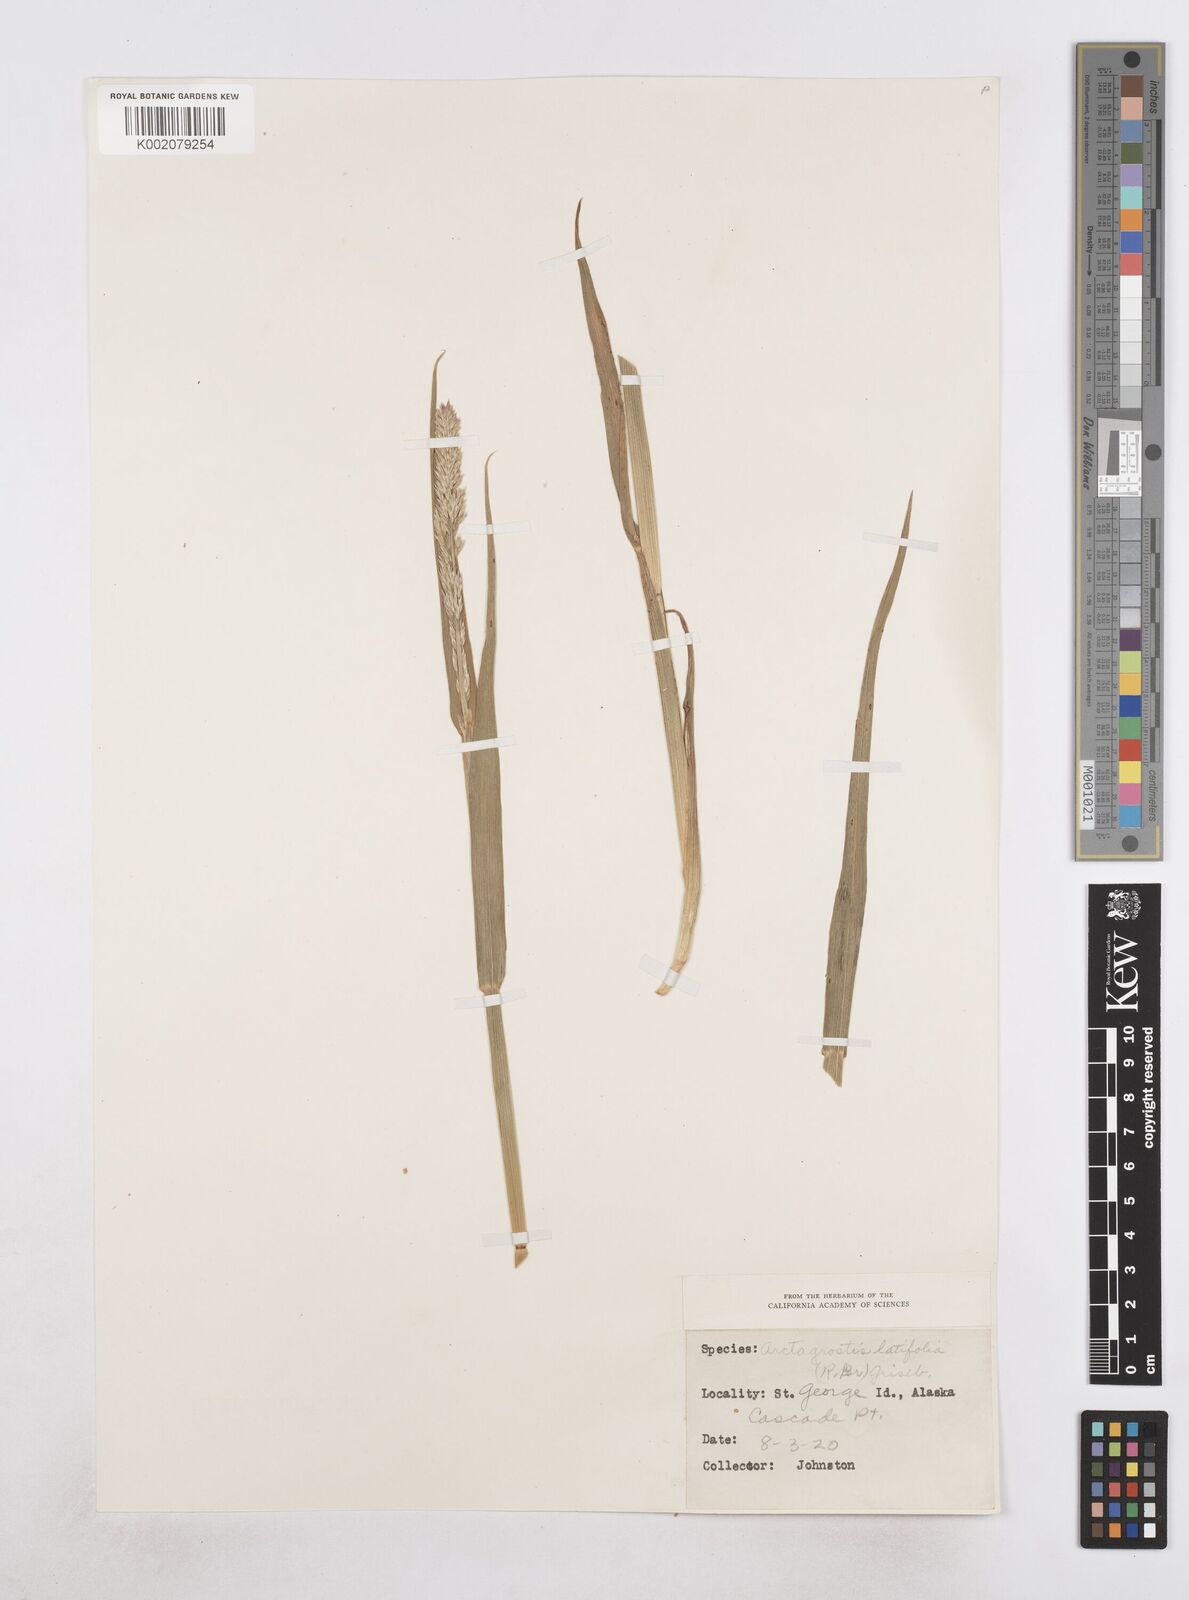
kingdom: Plantae
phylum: Tracheophyta
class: Liliopsida
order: Poales
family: Poaceae
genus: Arctagrostis
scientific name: Arctagrostis latifolia
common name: Arctic grass
